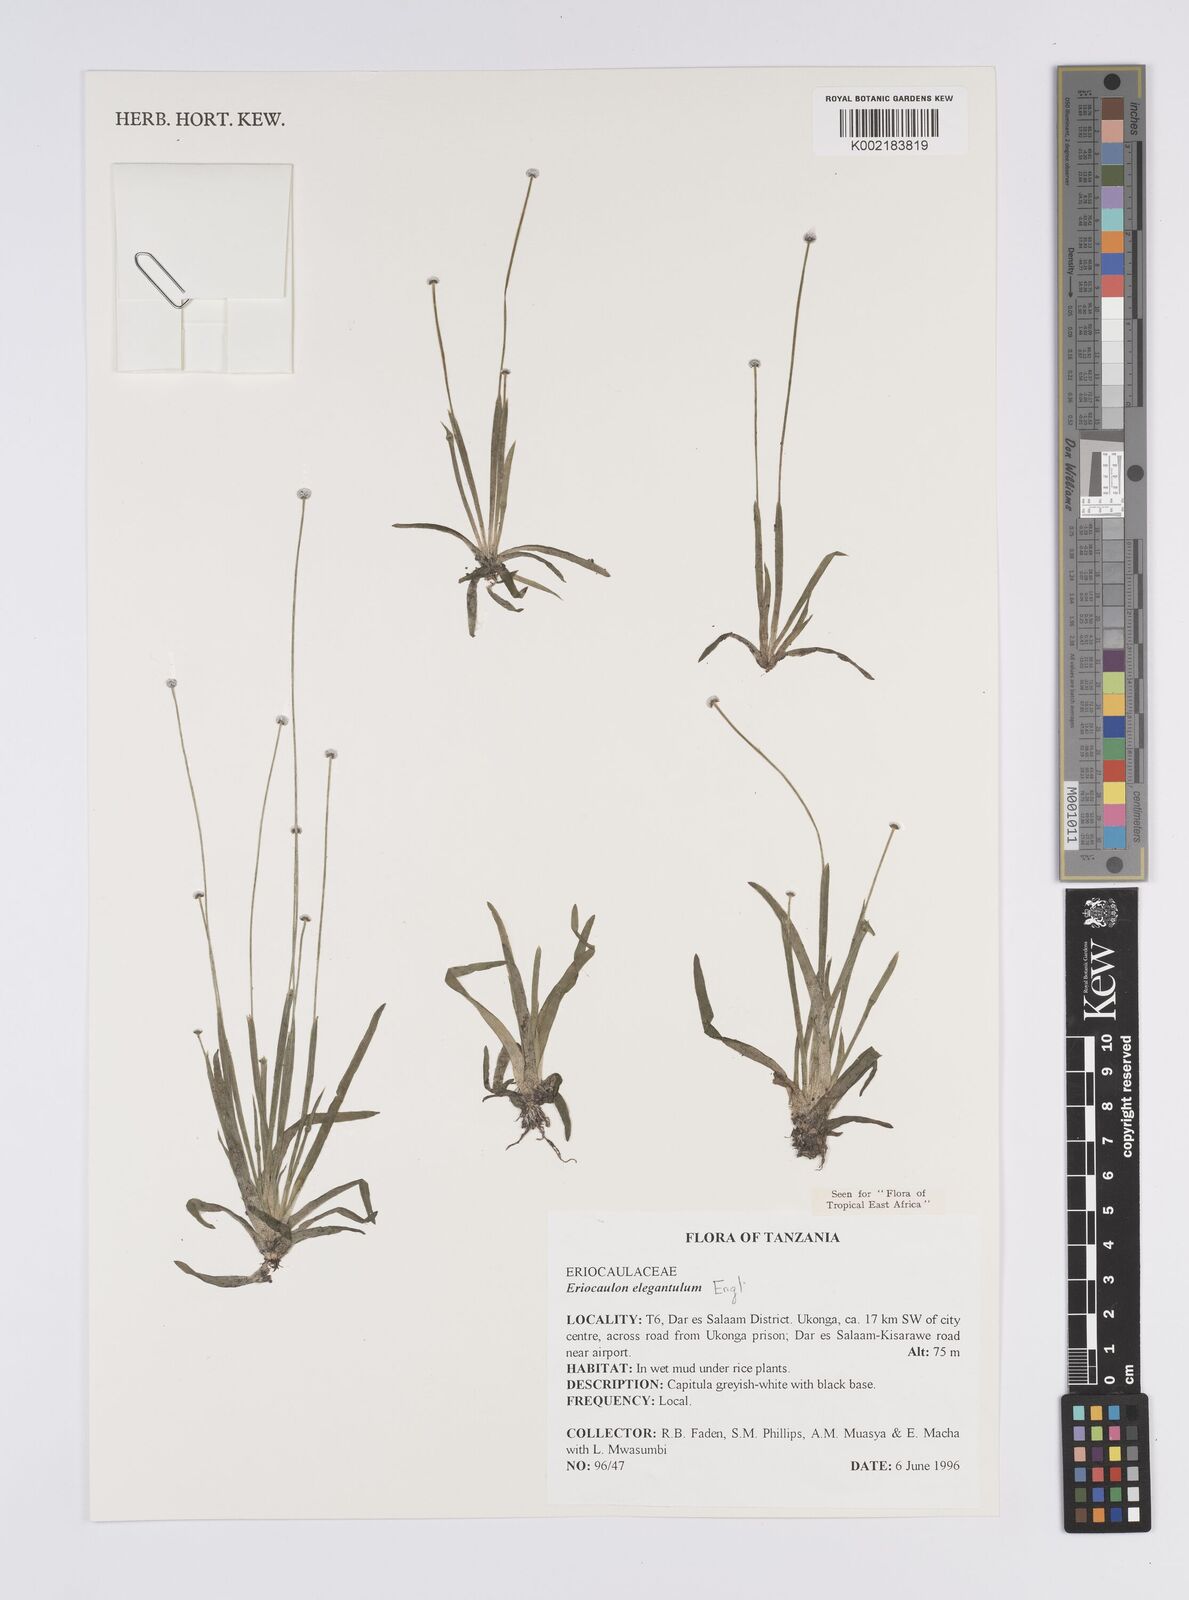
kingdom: Plantae
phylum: Tracheophyta
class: Liliopsida
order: Poales
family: Eriocaulaceae
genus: Eriocaulon
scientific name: Eriocaulon elegantulum
